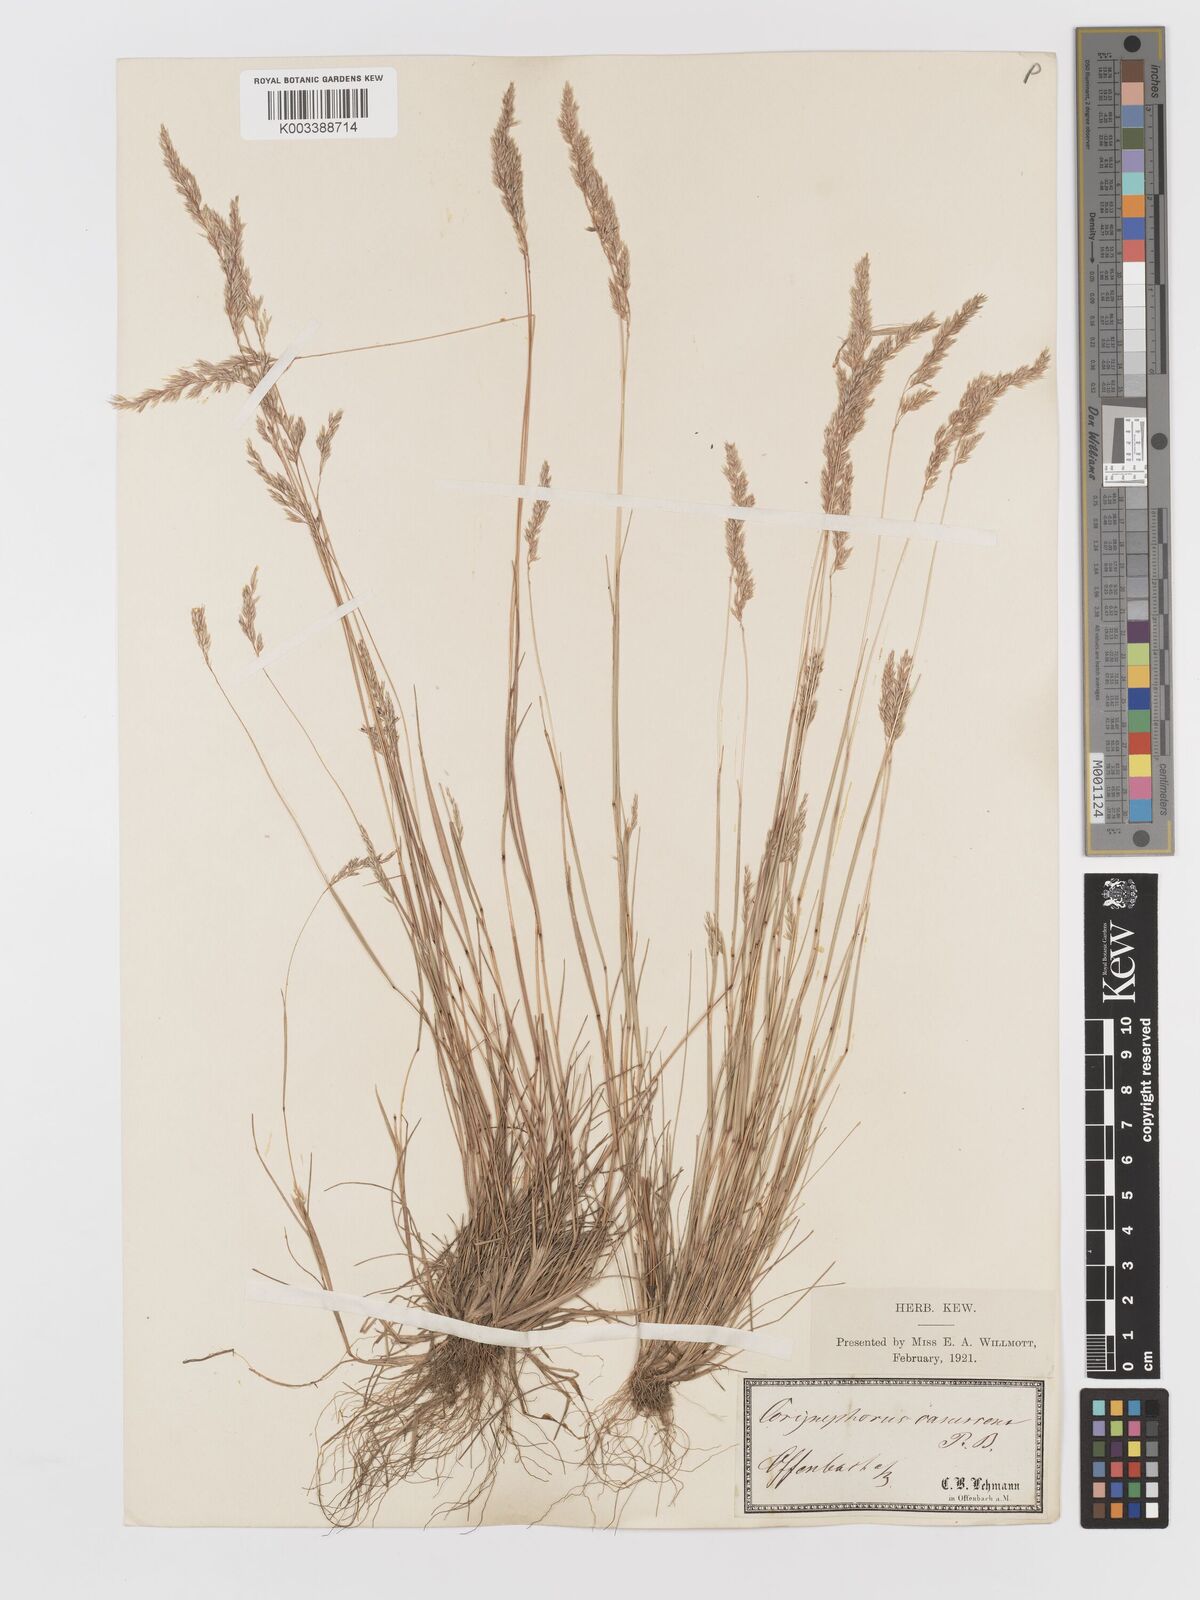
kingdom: Plantae
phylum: Tracheophyta
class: Liliopsida
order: Poales
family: Poaceae
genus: Corynephorus
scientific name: Corynephorus canescens
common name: Grey hair-grass
